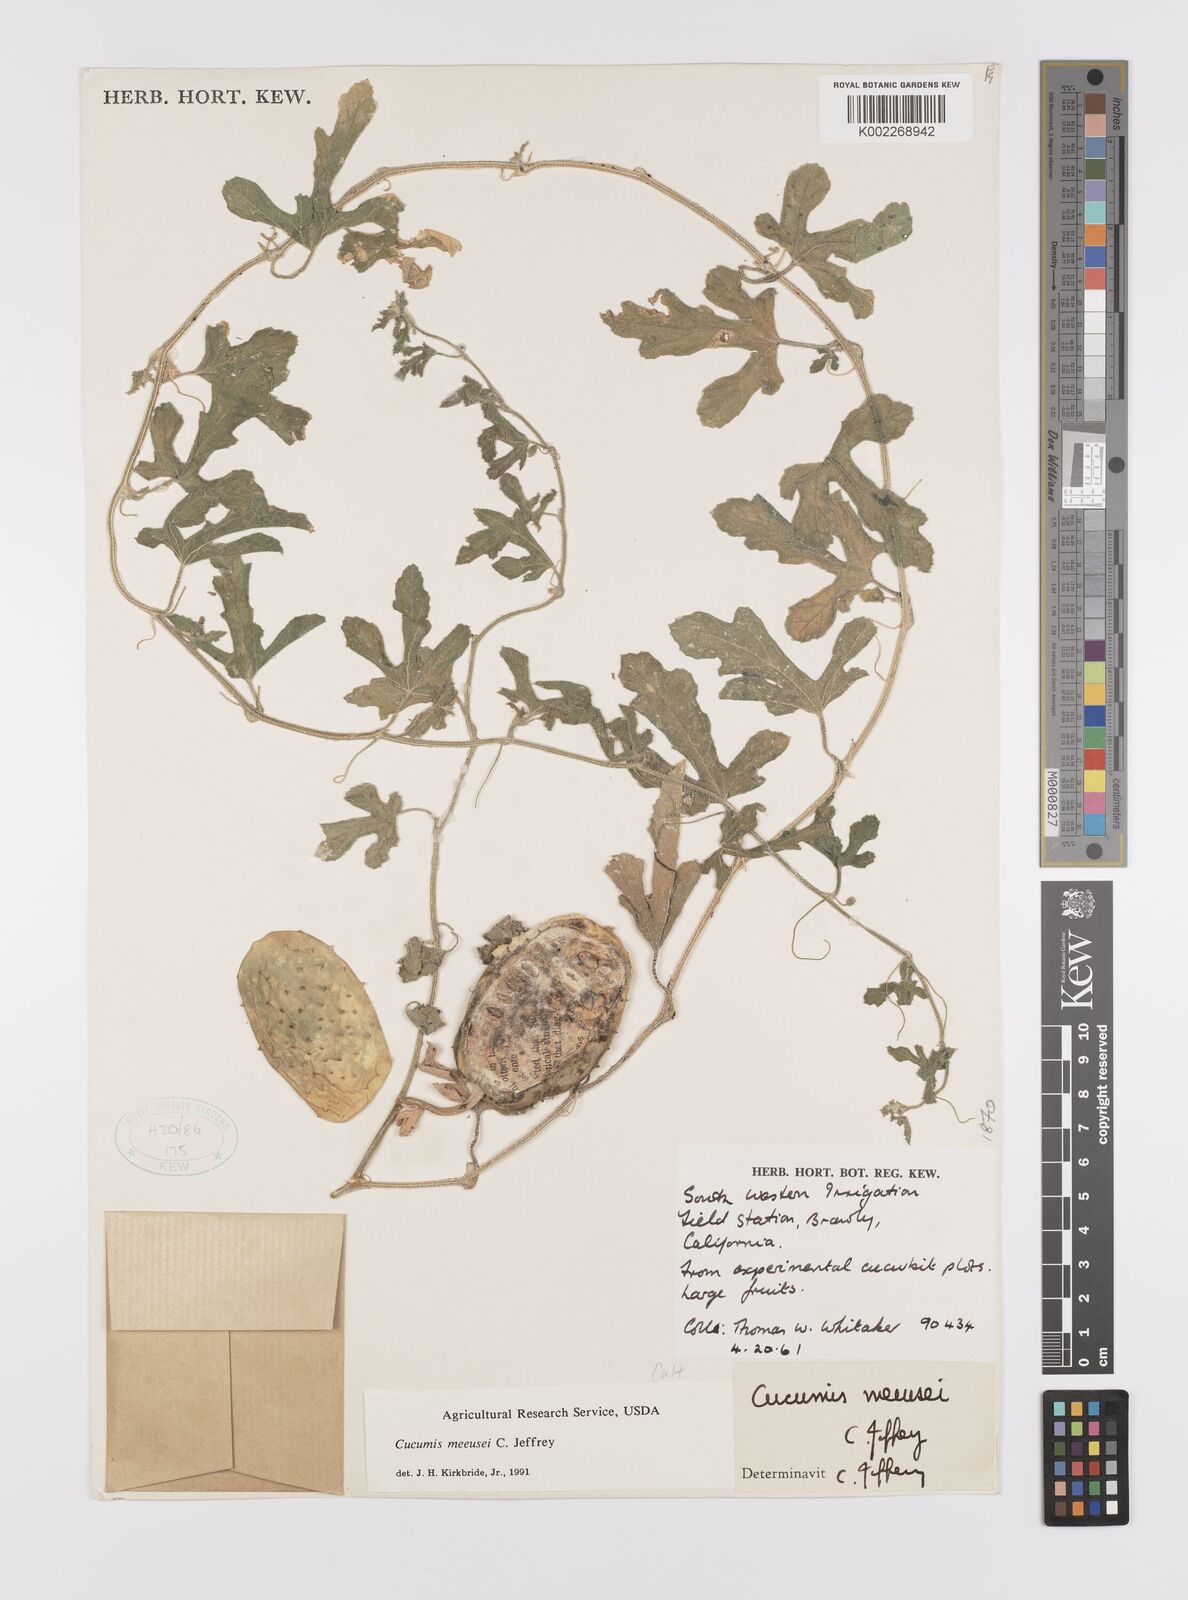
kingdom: Plantae
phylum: Tracheophyta
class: Magnoliopsida
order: Cucurbitales
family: Cucurbitaceae
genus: Cucumis
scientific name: Cucumis meeusei
